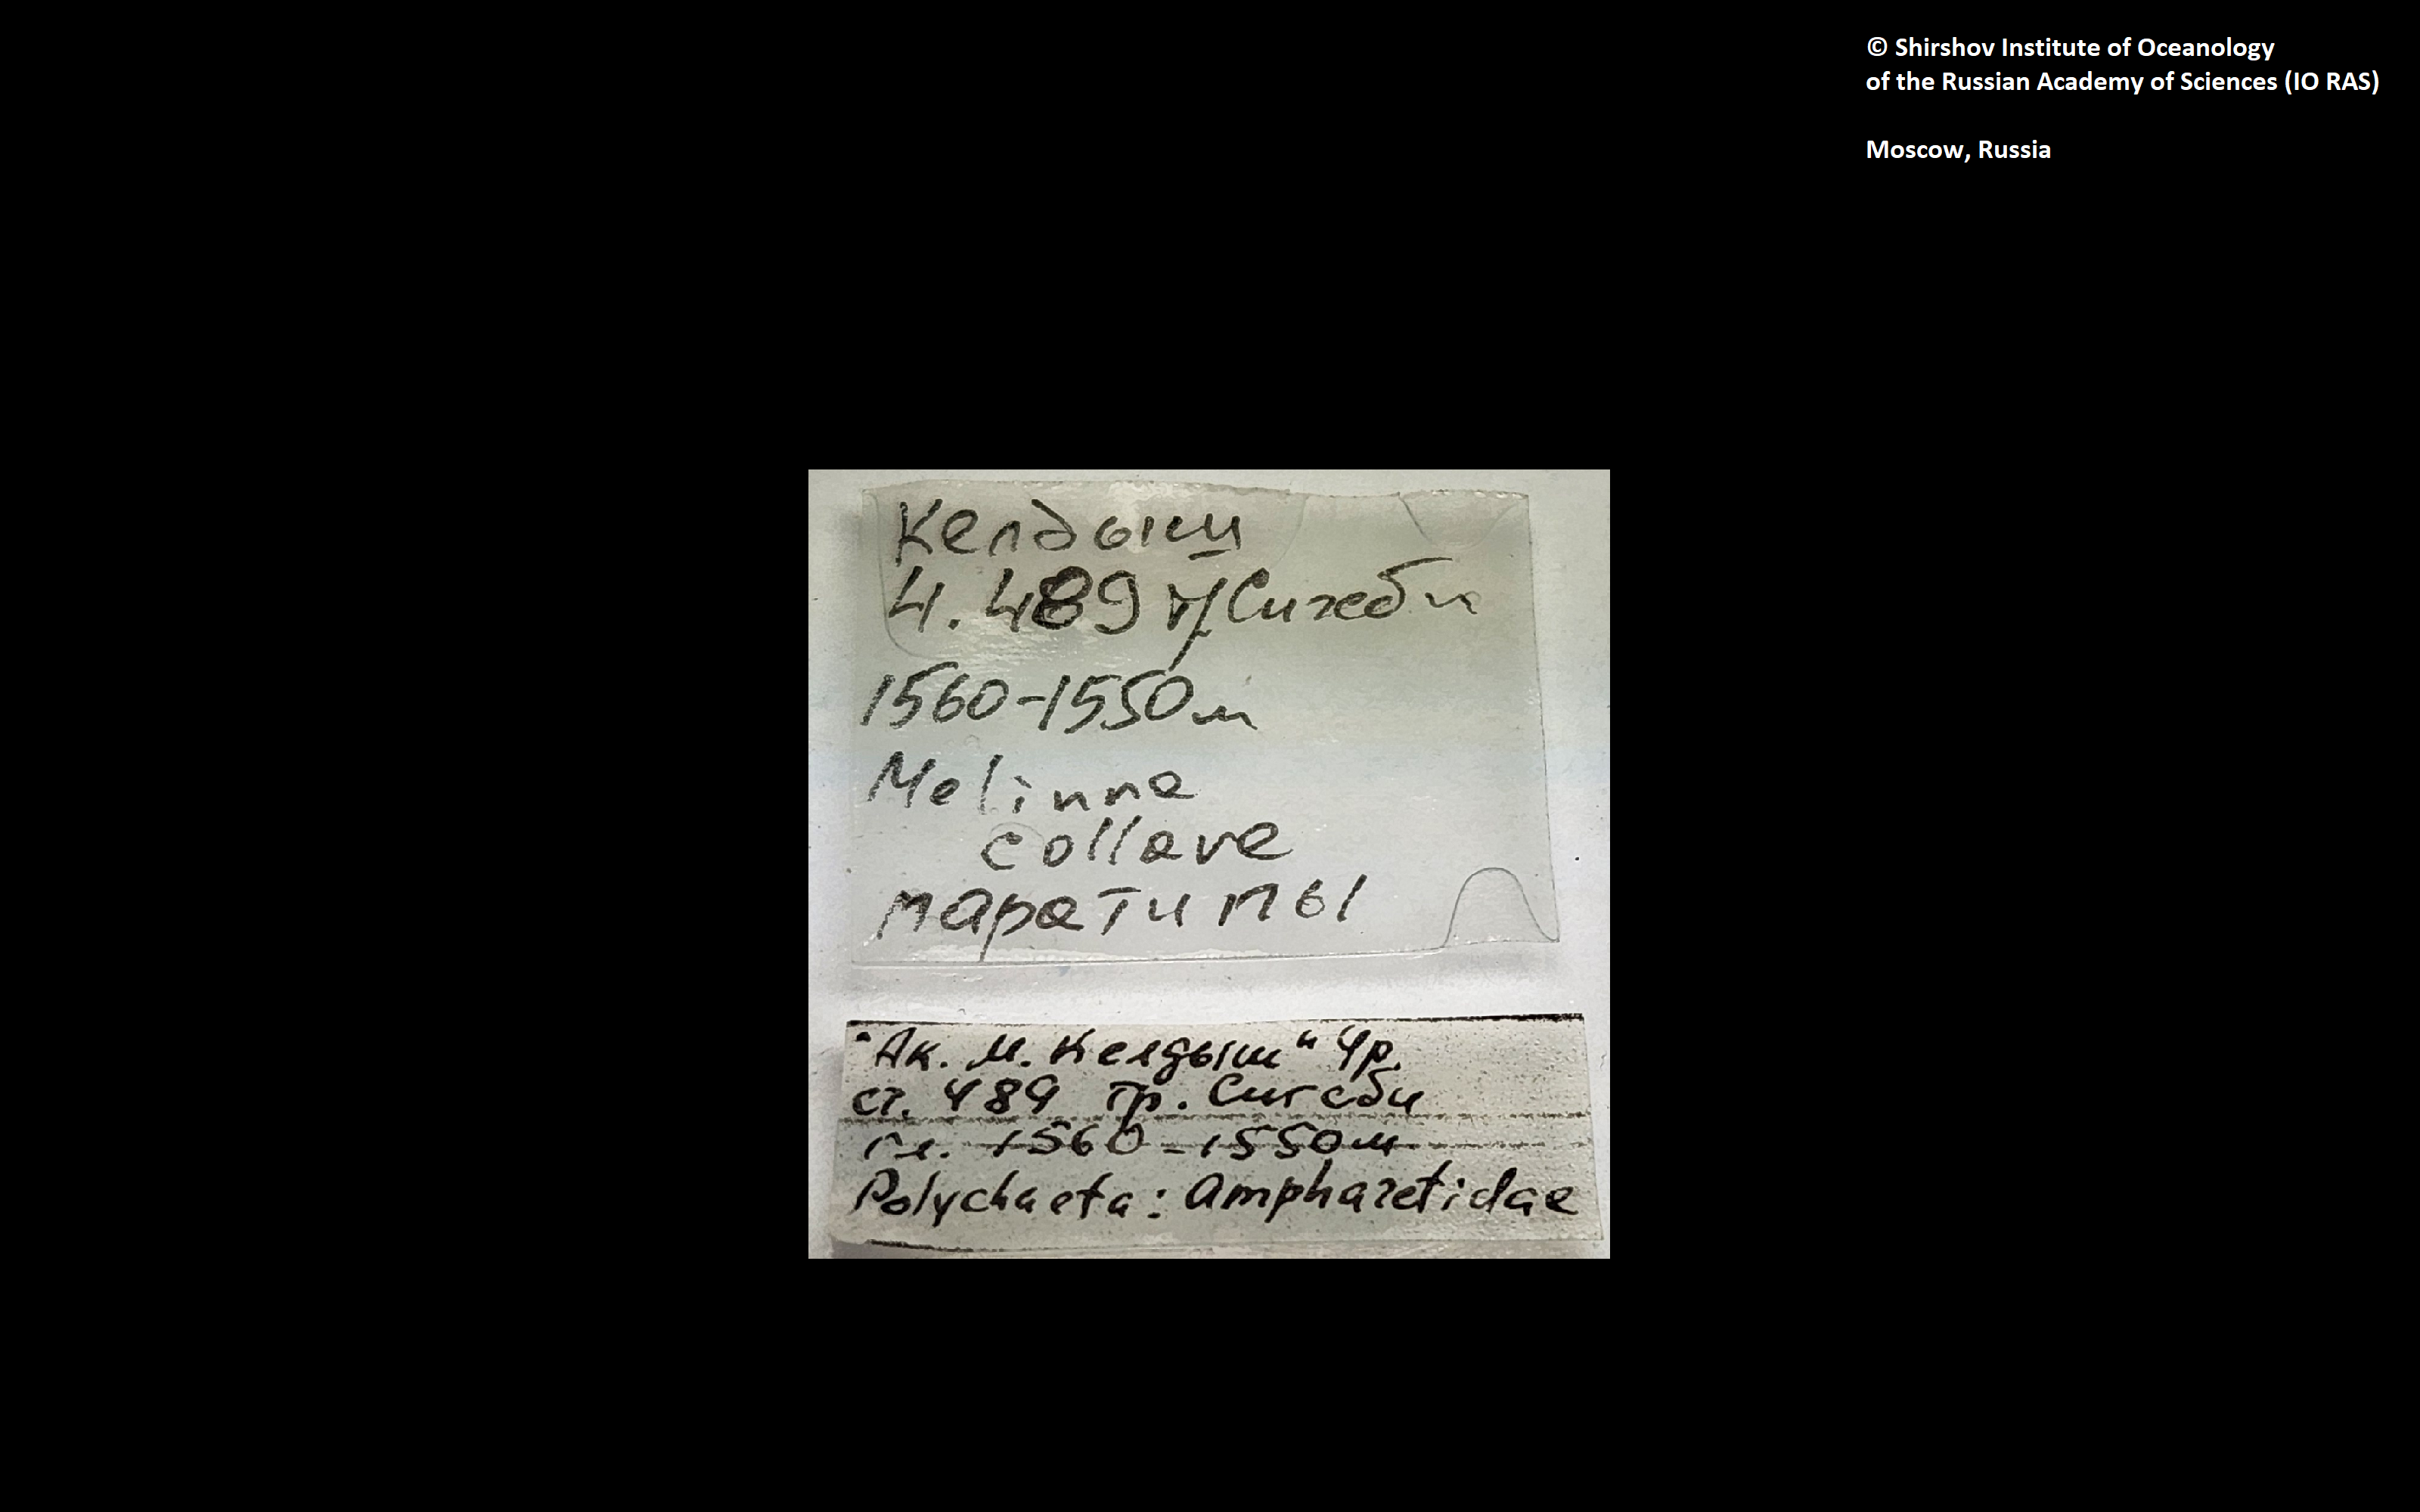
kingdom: Animalia
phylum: Annelida
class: Polychaeta
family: Melinnidae
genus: Melinna
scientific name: Melinna collare
